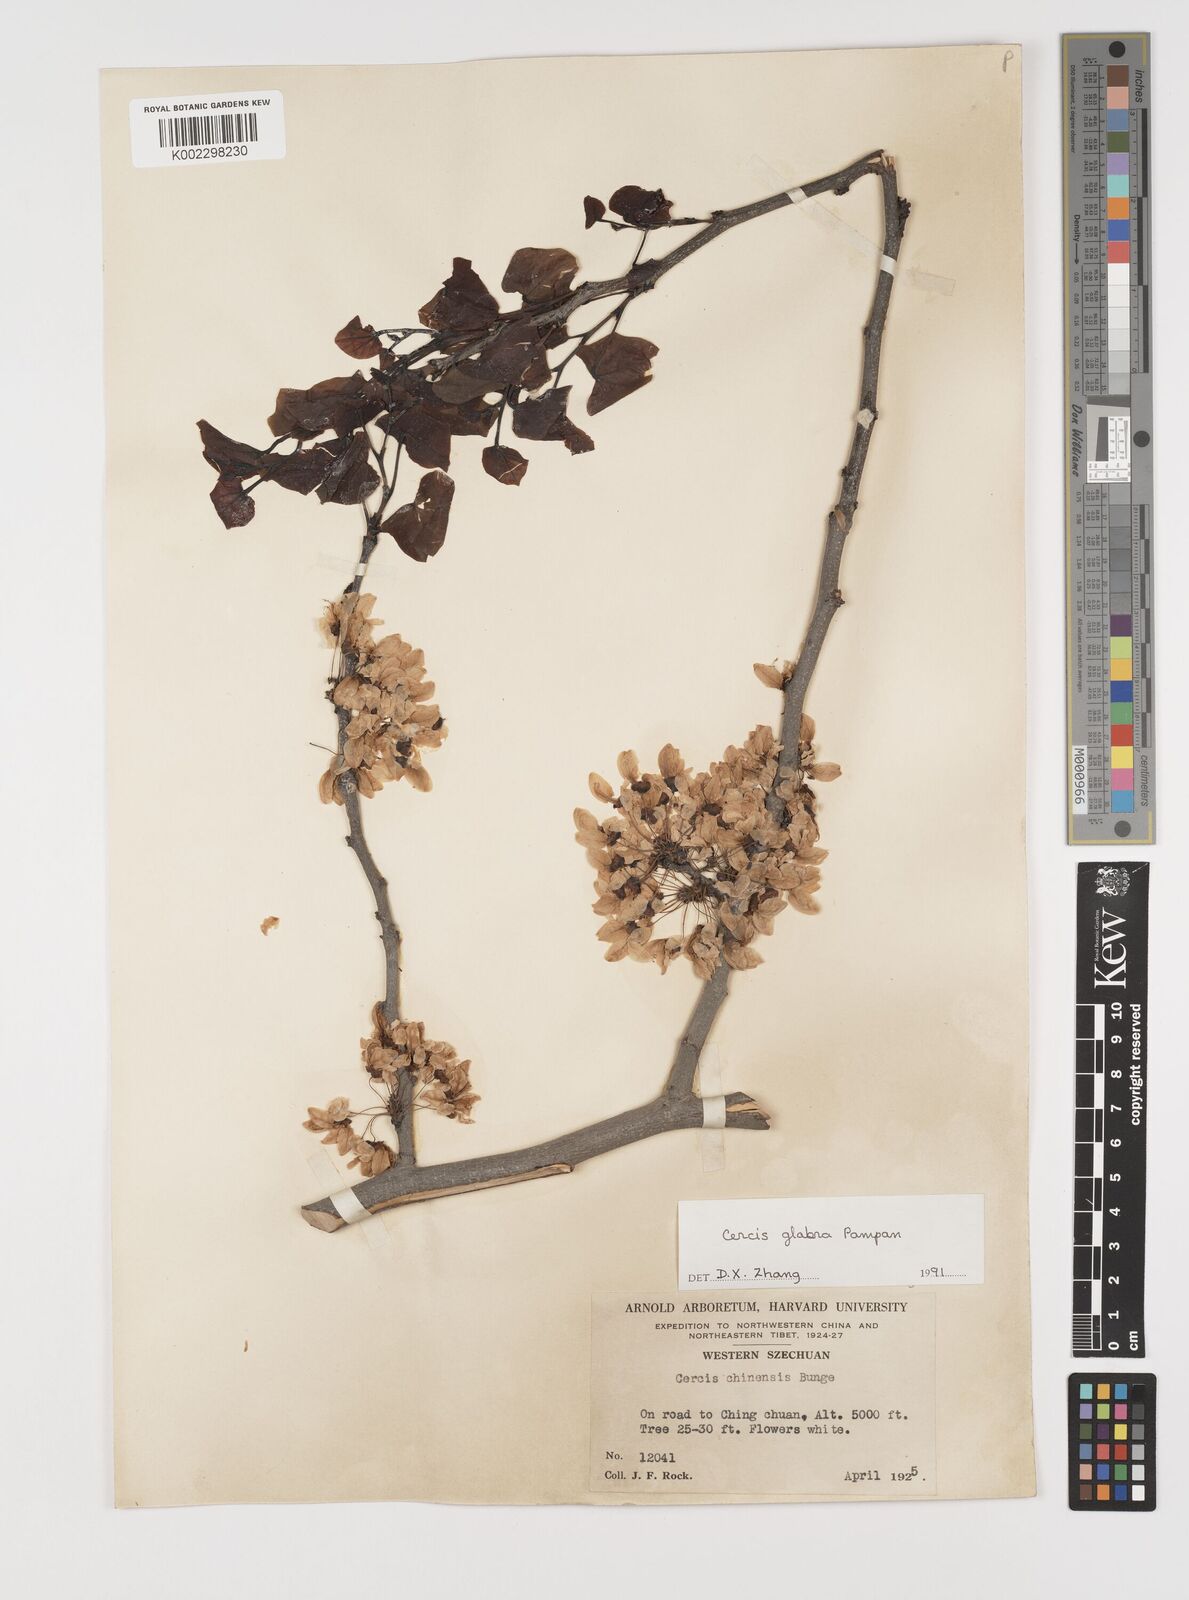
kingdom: Plantae
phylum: Tracheophyta
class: Magnoliopsida
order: Fabales
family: Fabaceae
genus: Cercis
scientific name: Cercis glabra
